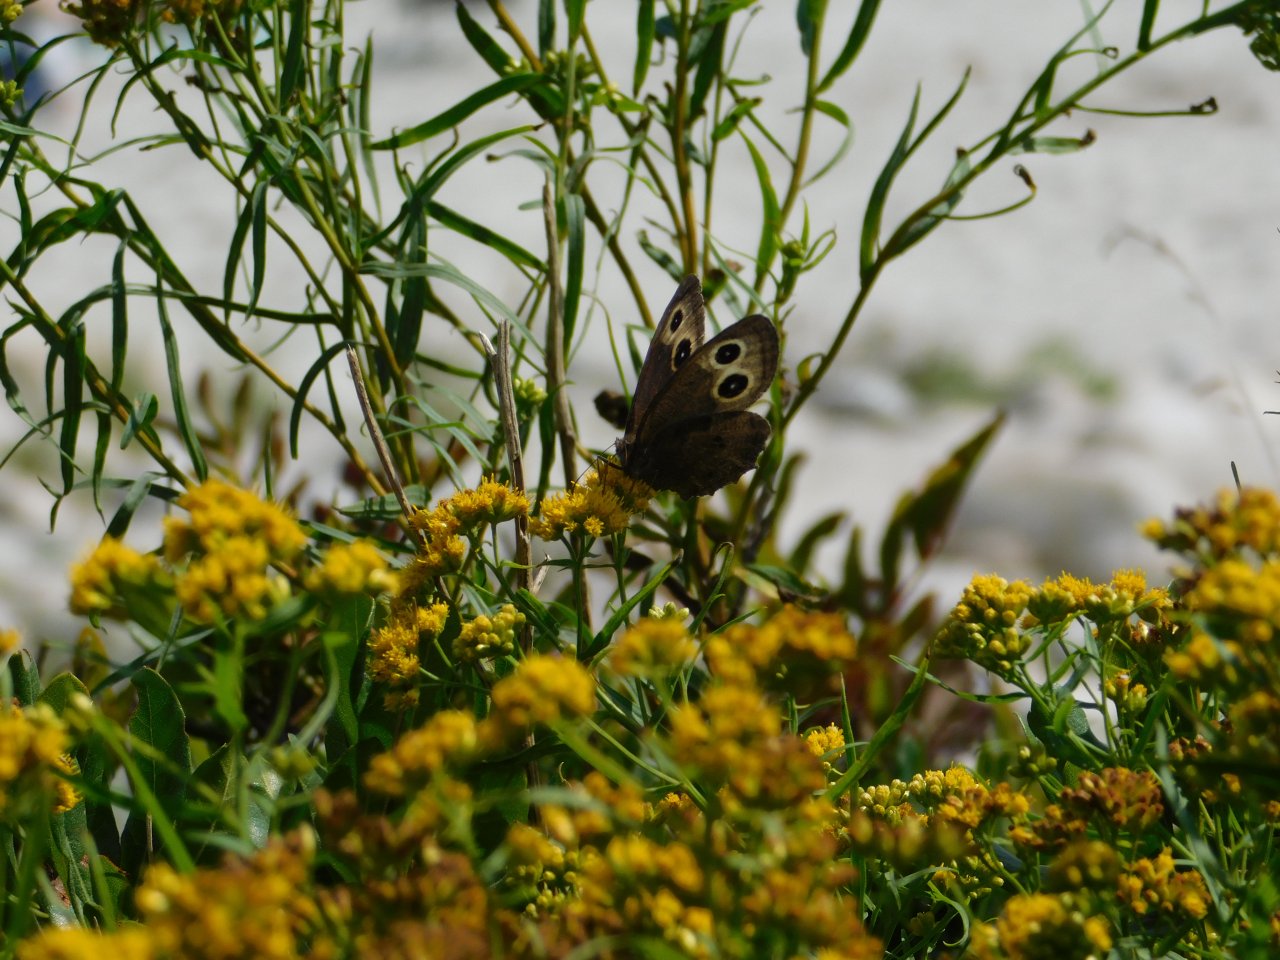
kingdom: Animalia
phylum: Arthropoda
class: Insecta
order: Lepidoptera
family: Nymphalidae
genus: Cercyonis
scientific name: Cercyonis pegala
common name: Common Wood-Nymph
